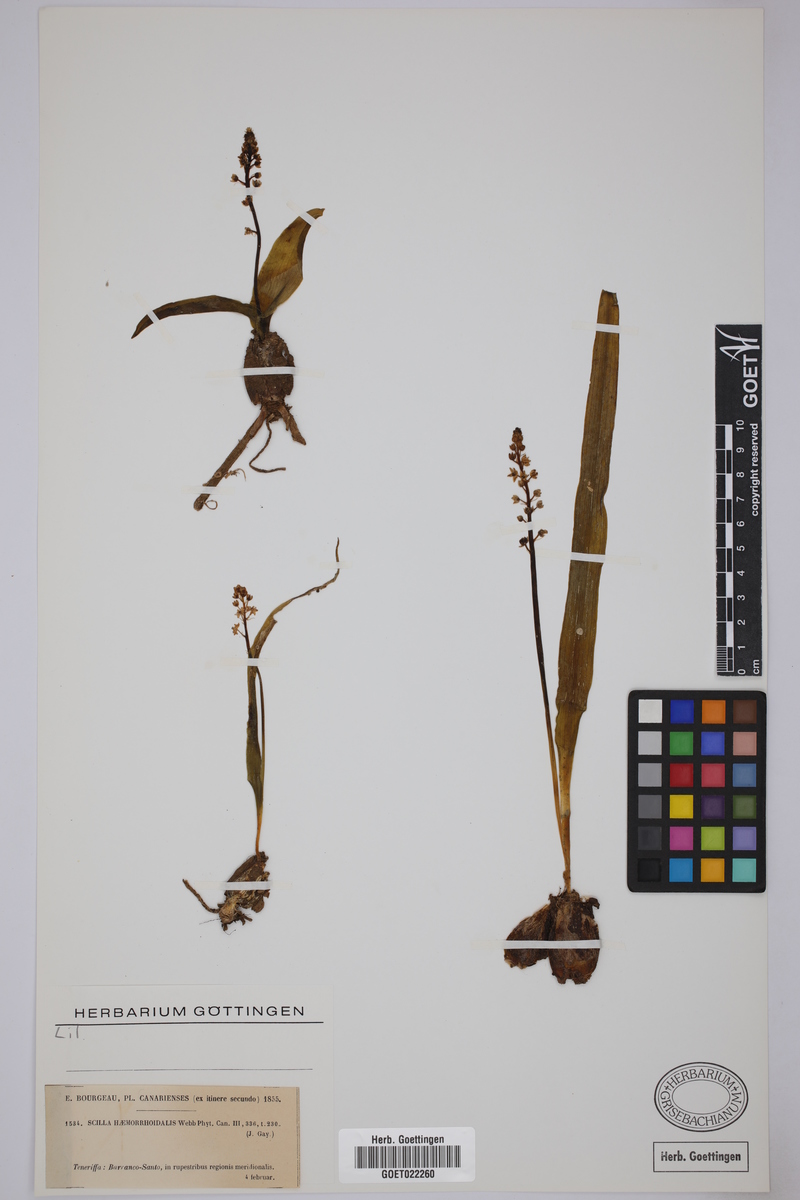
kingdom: Plantae
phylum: Tracheophyta
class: Liliopsida
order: Asparagales
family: Asparagaceae
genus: Scilla
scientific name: Scilla haemorrhoidalis
